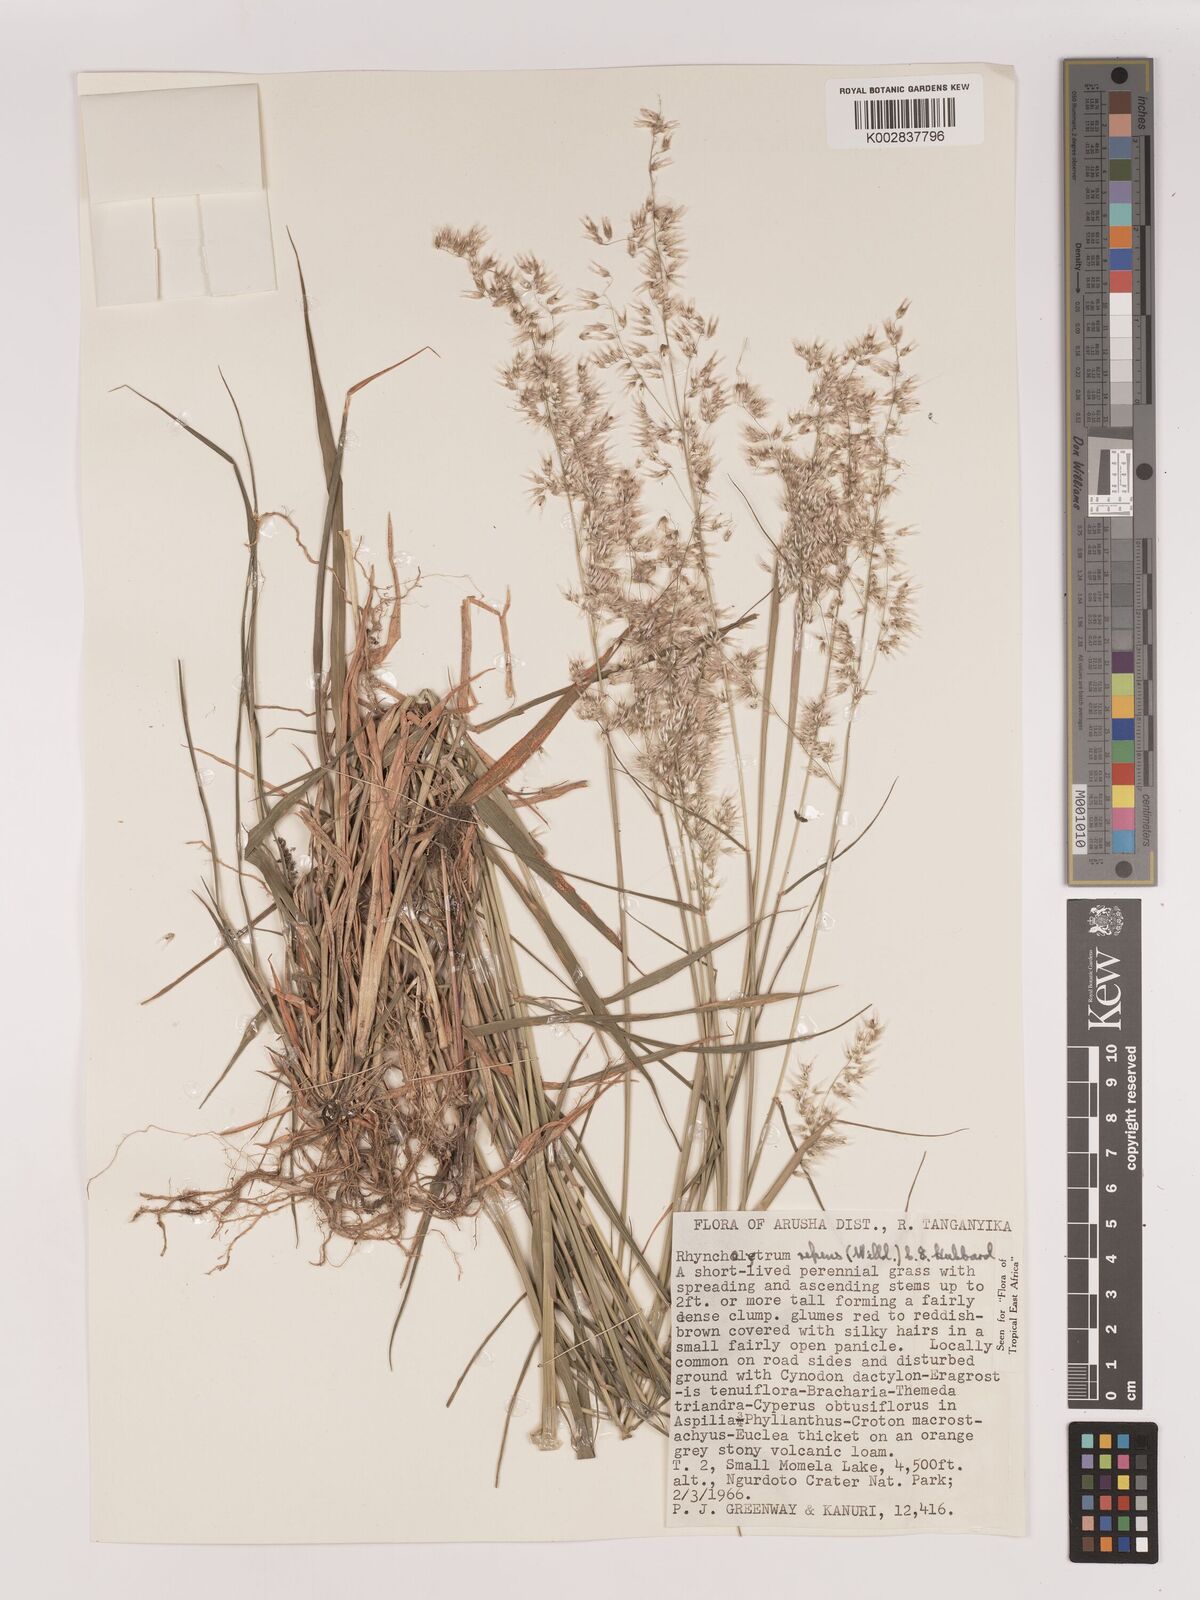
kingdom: Plantae
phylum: Tracheophyta
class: Liliopsida
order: Poales
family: Poaceae
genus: Melinis
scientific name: Melinis repens
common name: Rose natal grass
